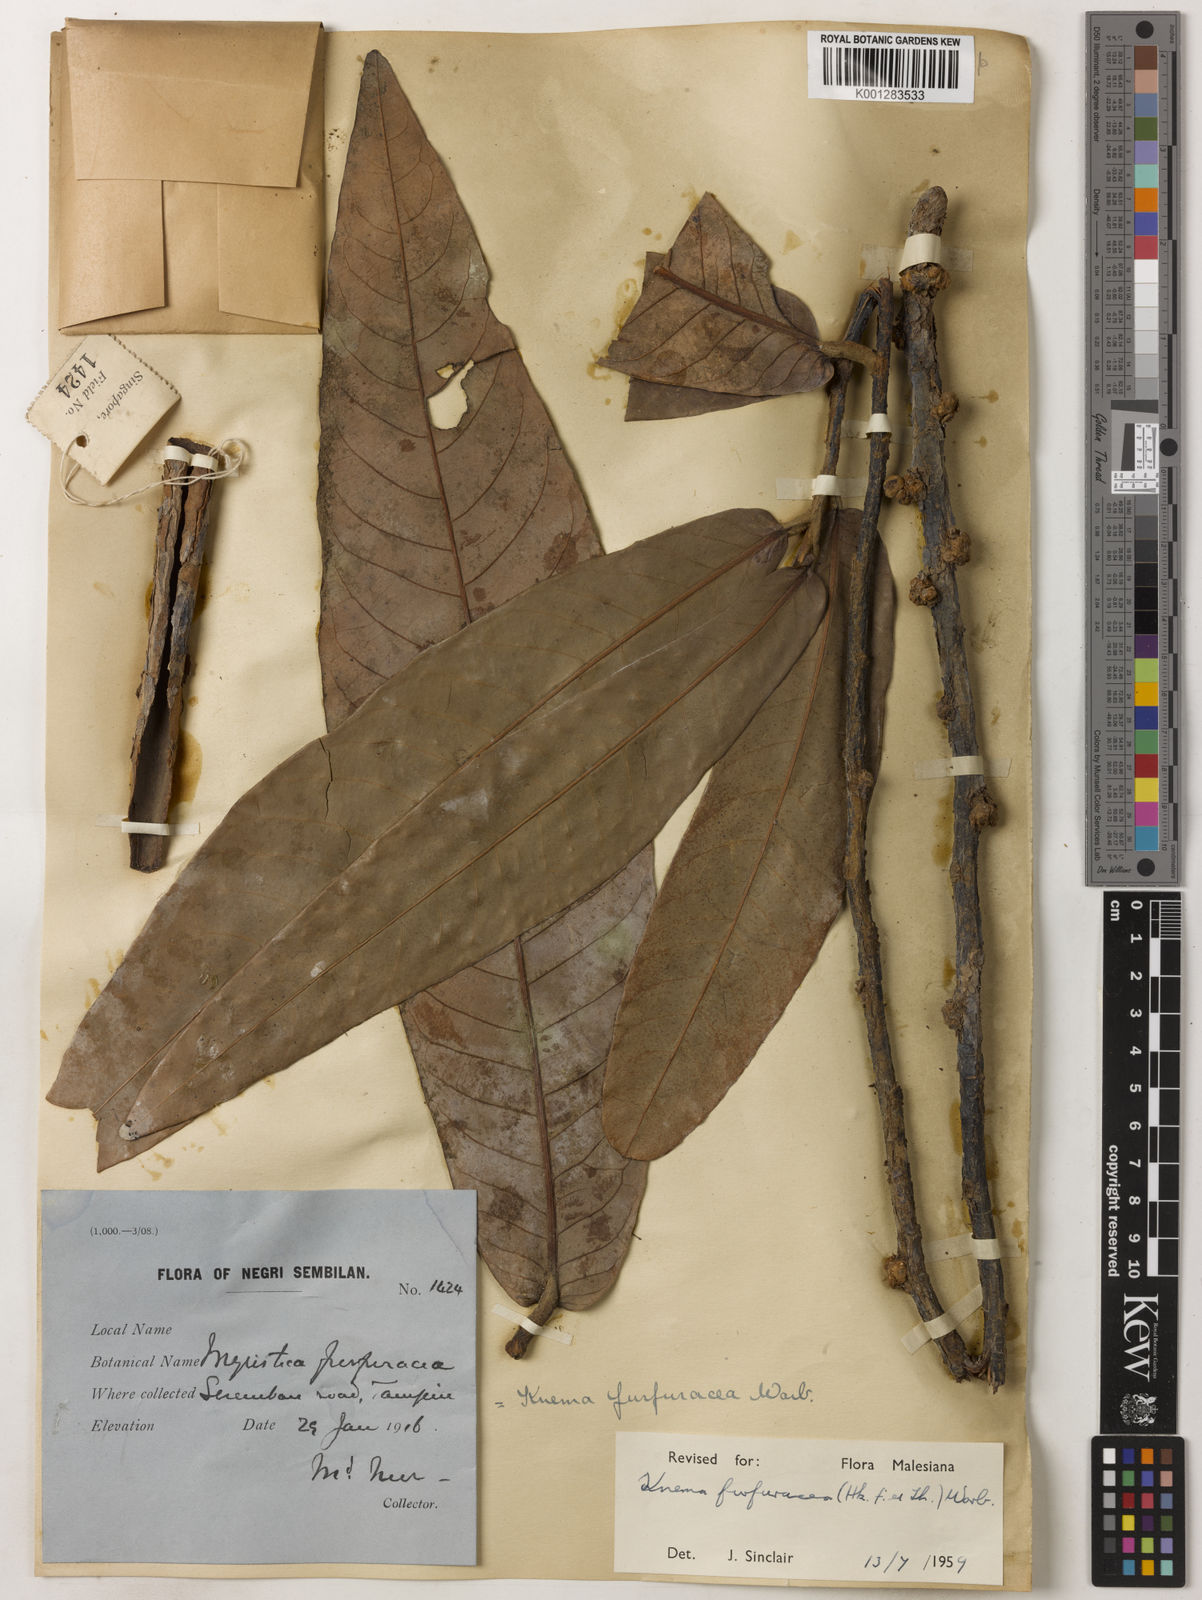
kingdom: Plantae
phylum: Tracheophyta
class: Magnoliopsida
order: Magnoliales
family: Myristicaceae
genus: Knema
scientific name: Knema furfuracea
